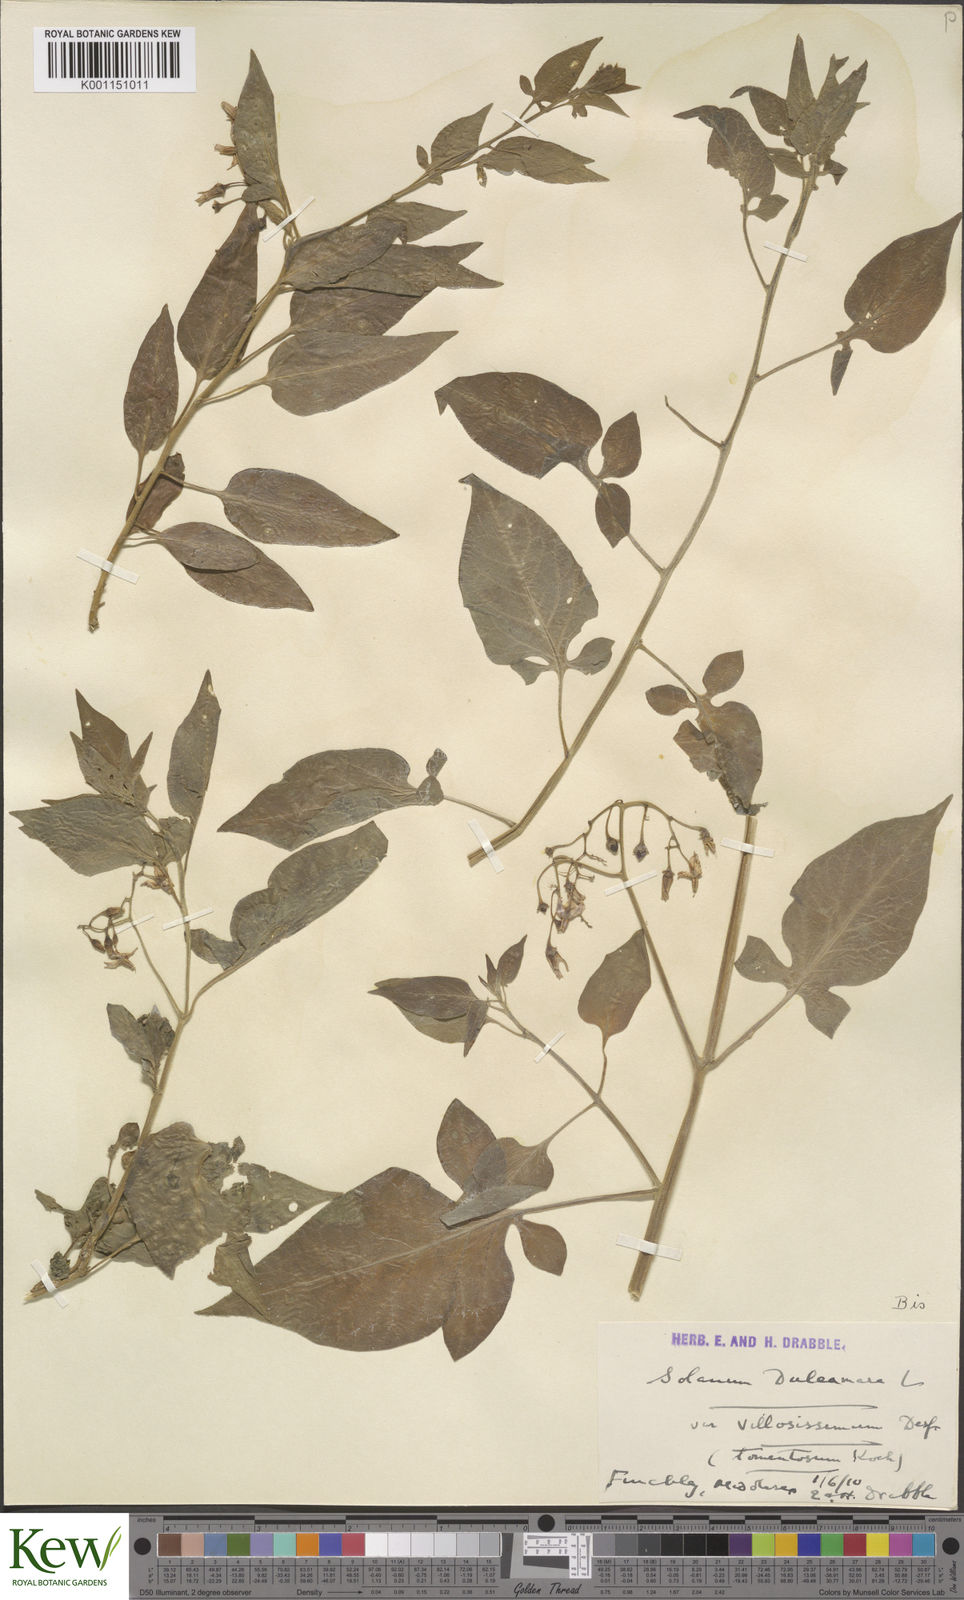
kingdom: Plantae
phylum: Tracheophyta
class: Magnoliopsida
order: Solanales
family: Solanaceae
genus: Solanum
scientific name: Solanum dulcamara
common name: Climbing nightshade
